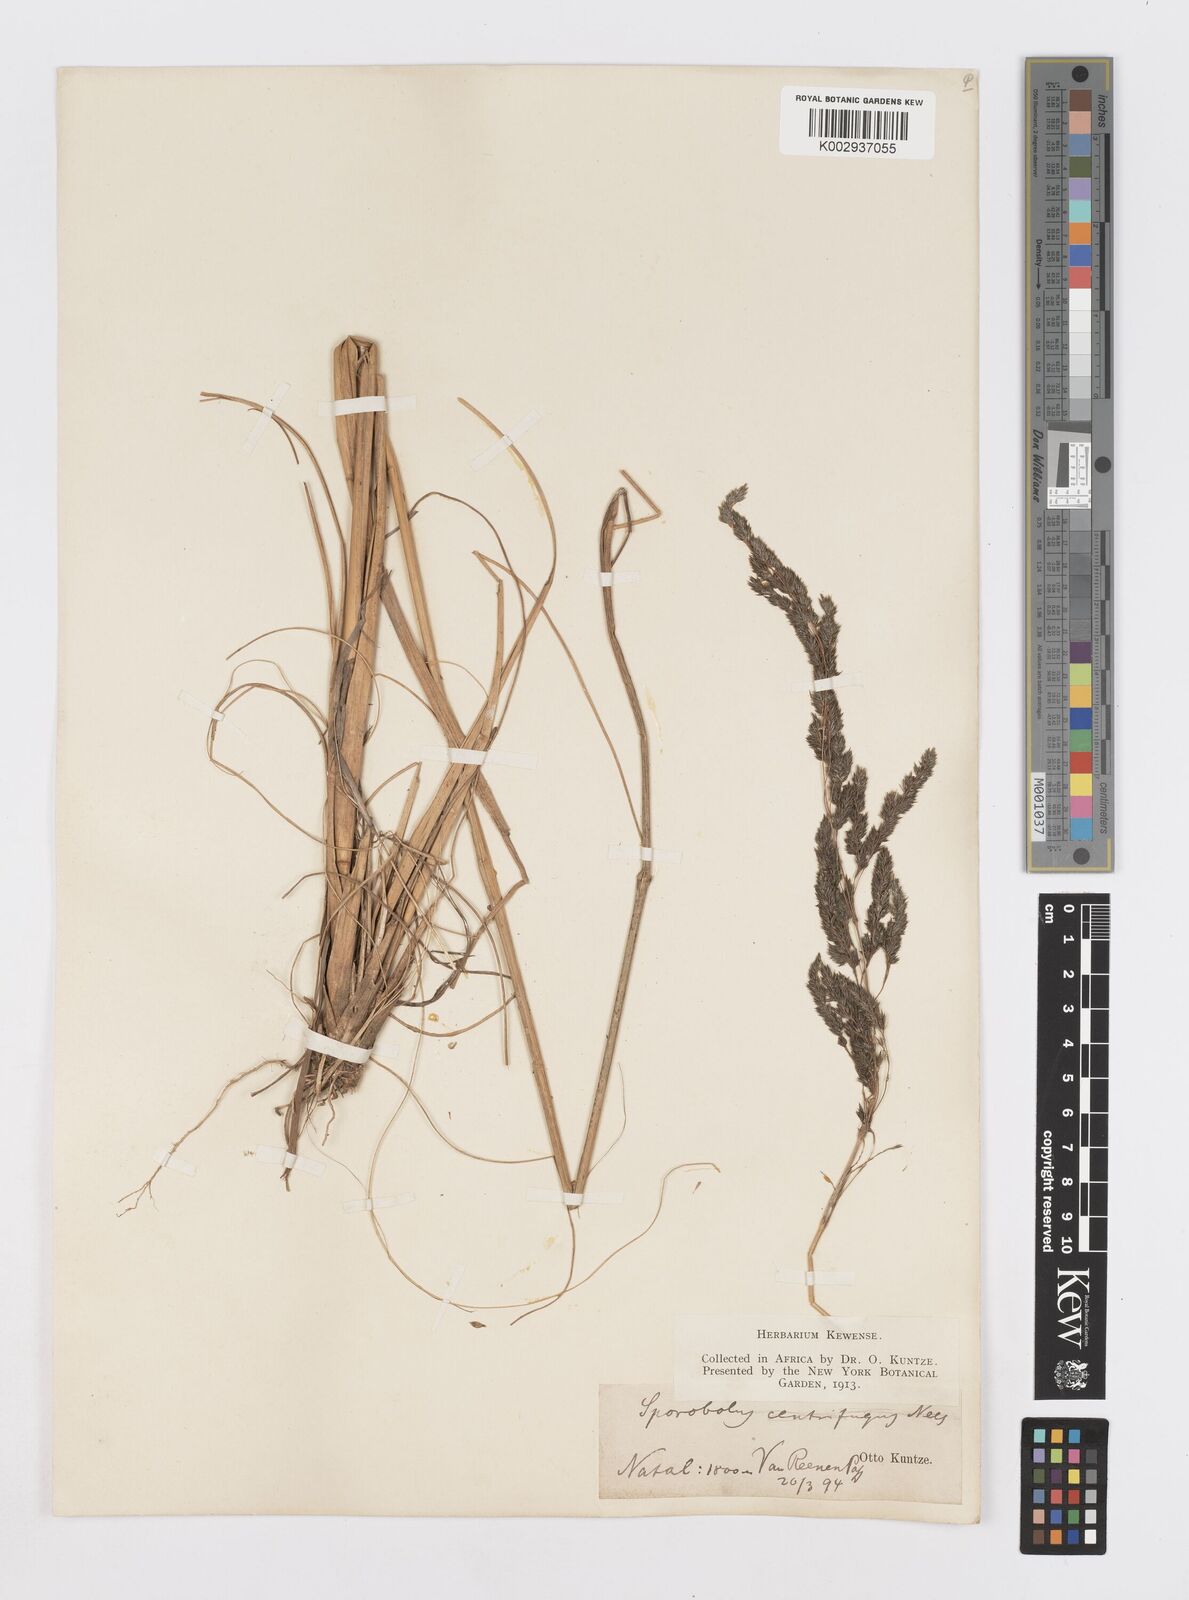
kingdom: Plantae
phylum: Tracheophyta
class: Liliopsida
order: Poales
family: Poaceae
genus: Sporobolus
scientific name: Sporobolus
